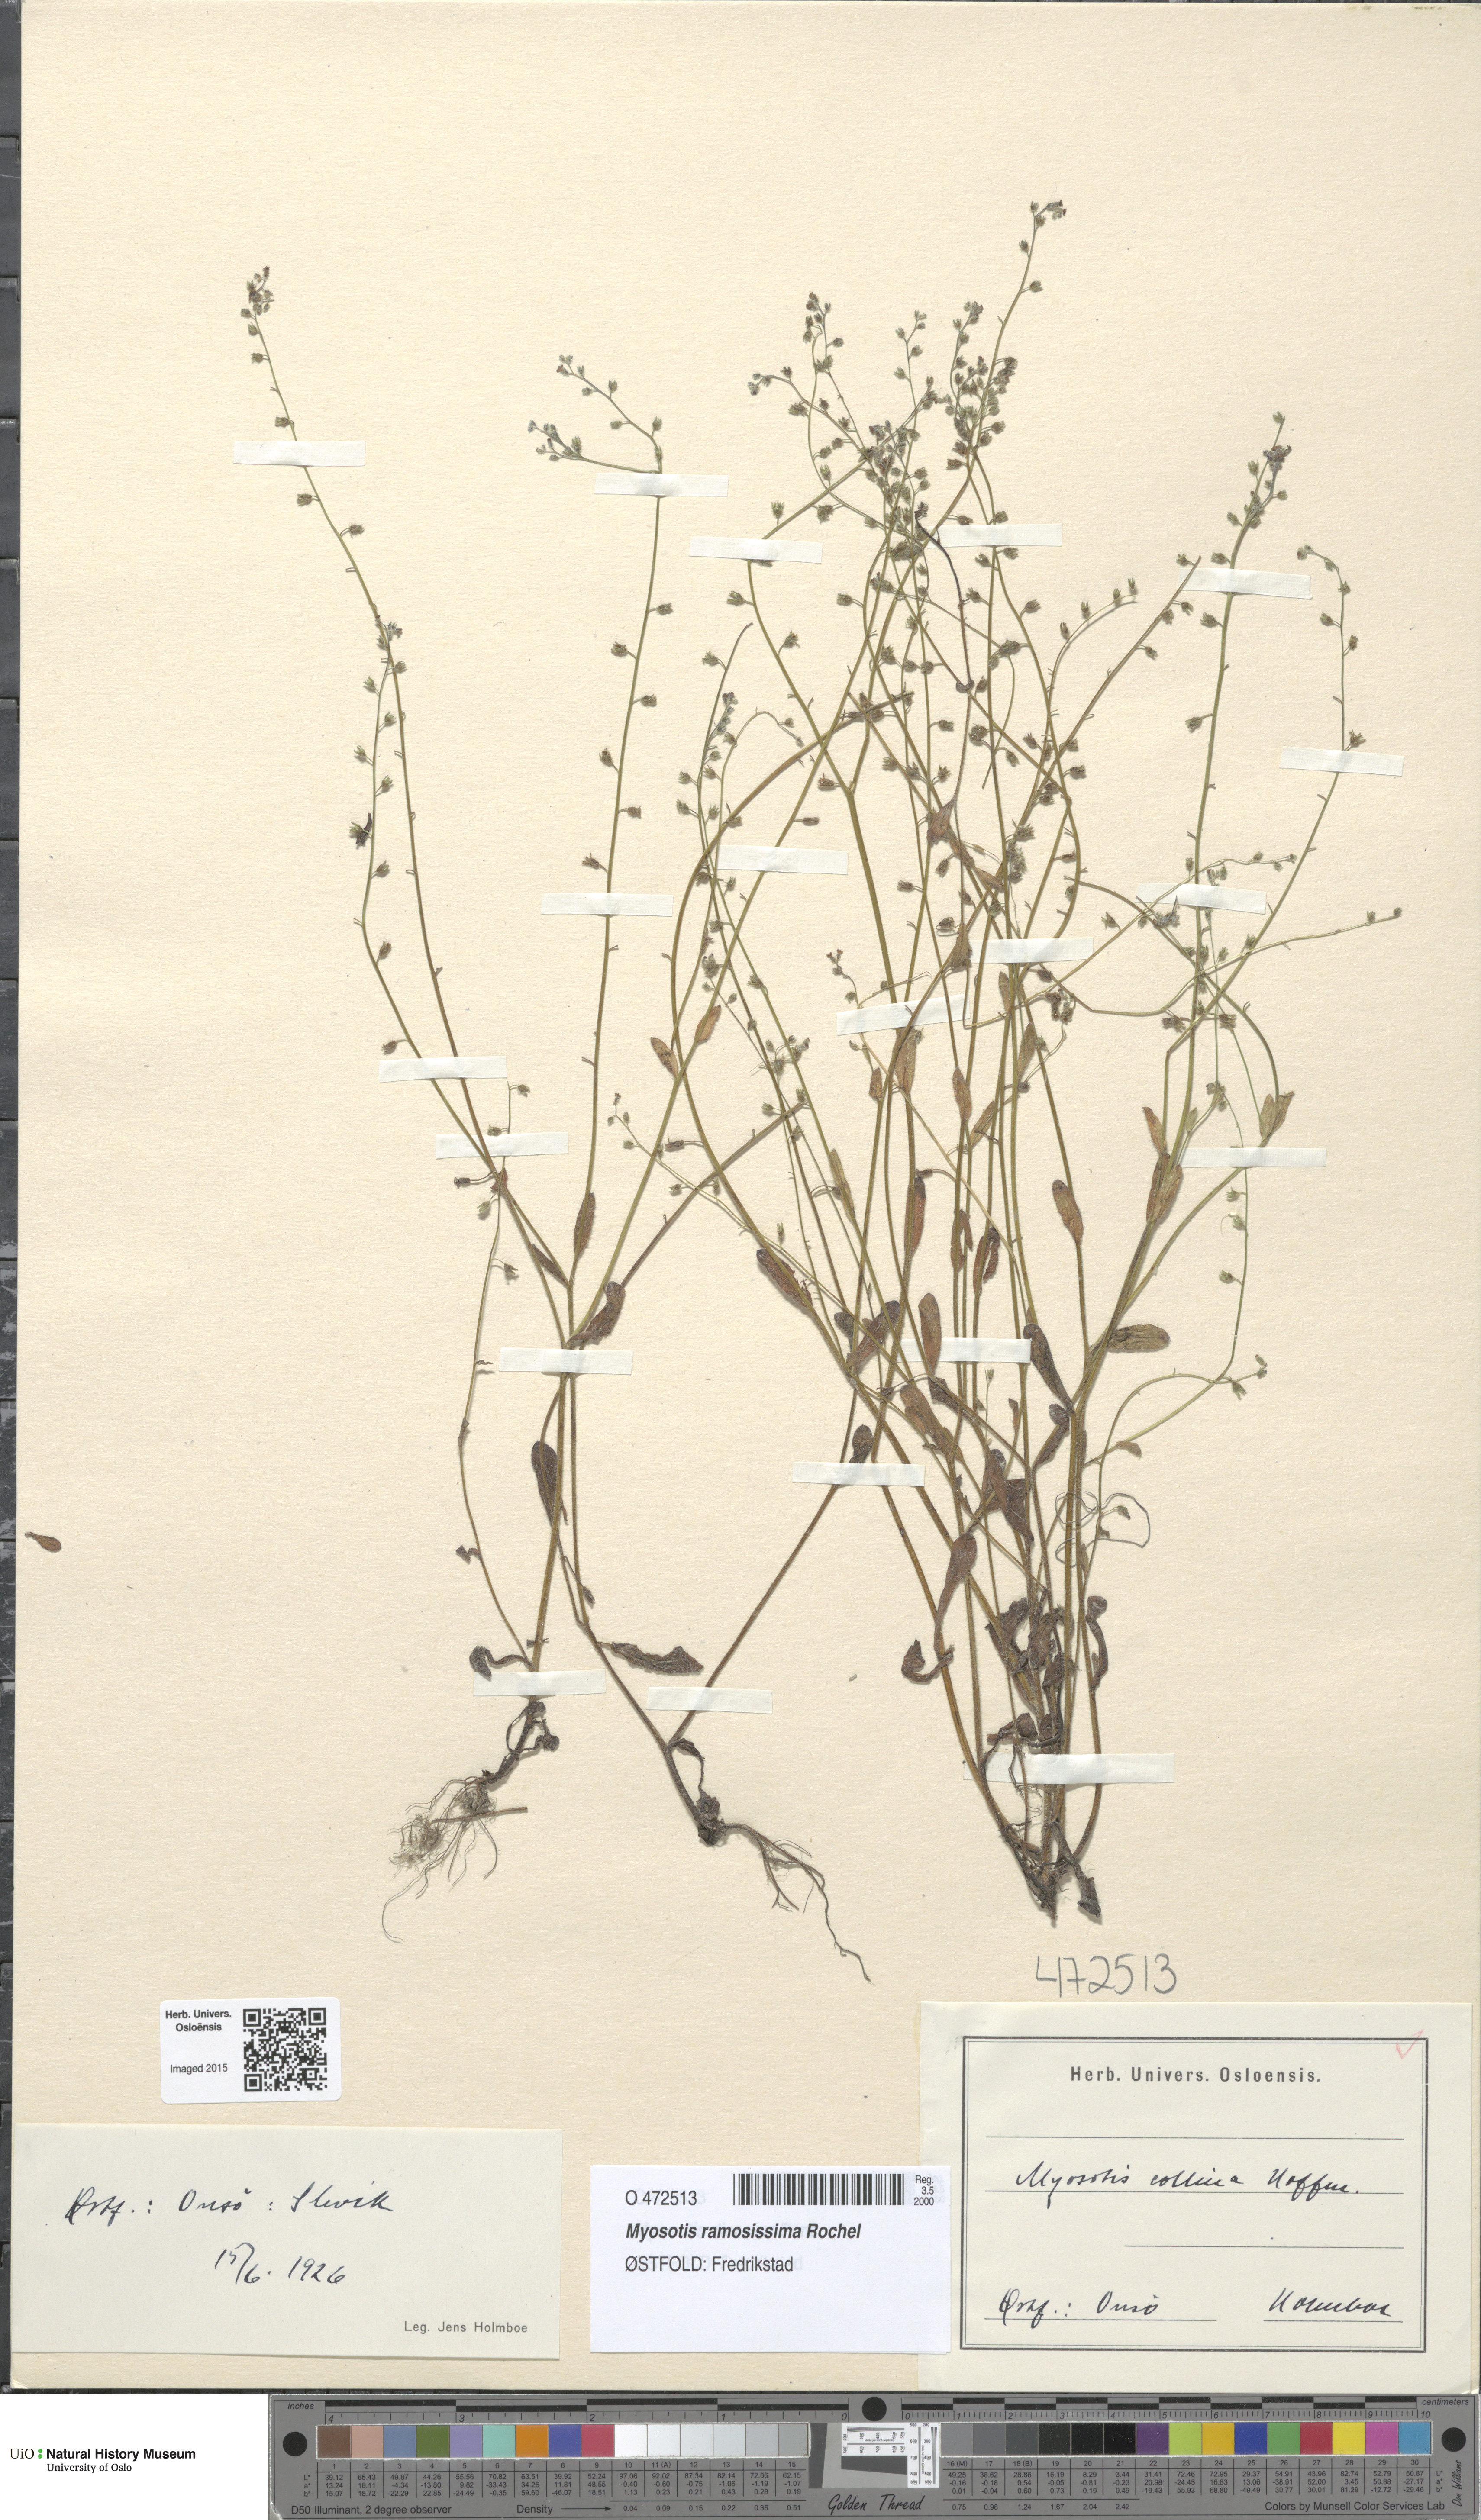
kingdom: Plantae
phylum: Tracheophyta
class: Magnoliopsida
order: Boraginales
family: Boraginaceae
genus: Myosotis
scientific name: Myosotis ramosissima
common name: Early forget-me-not
